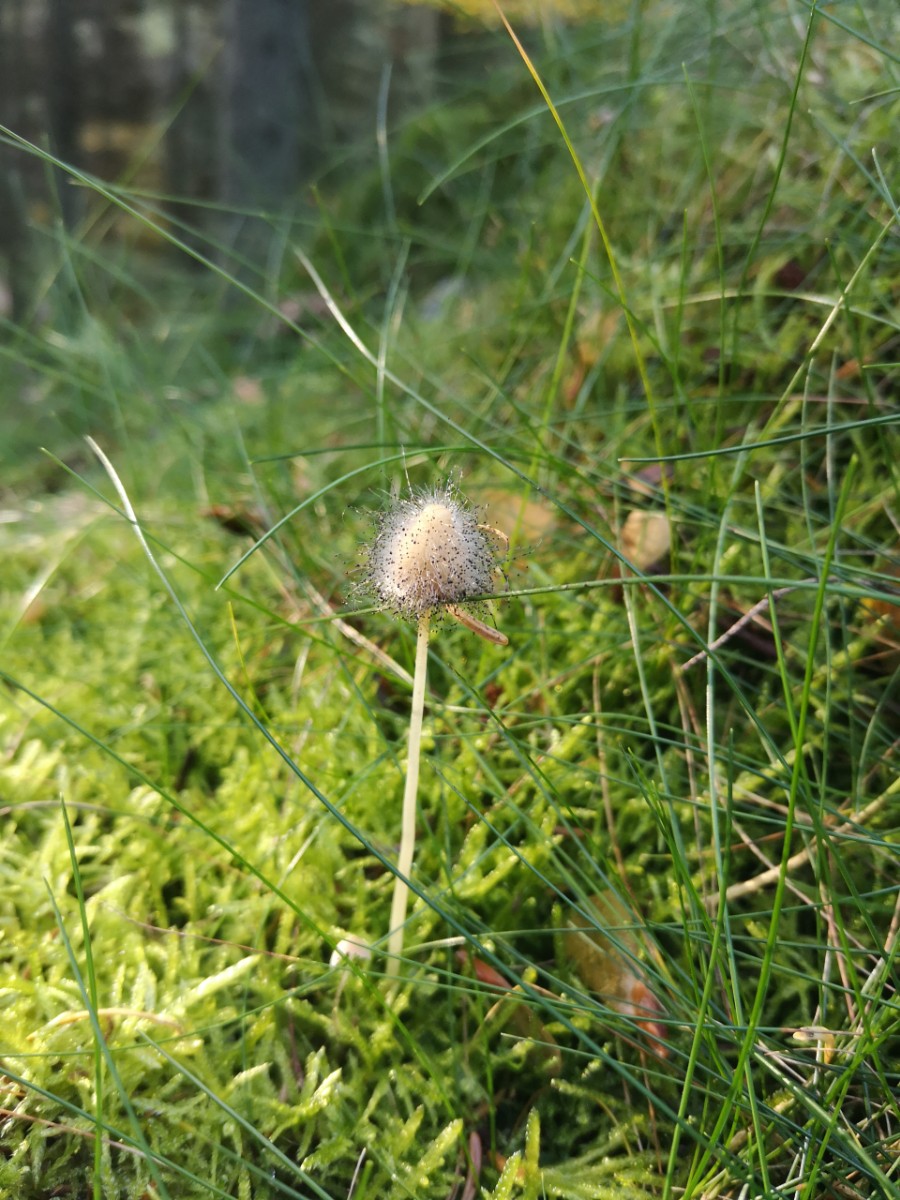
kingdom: Fungi
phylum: Mucoromycota
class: Mucoromycetes
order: Mucorales
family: Phycomycetaceae
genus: Spinellus
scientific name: Spinellus fusiger
